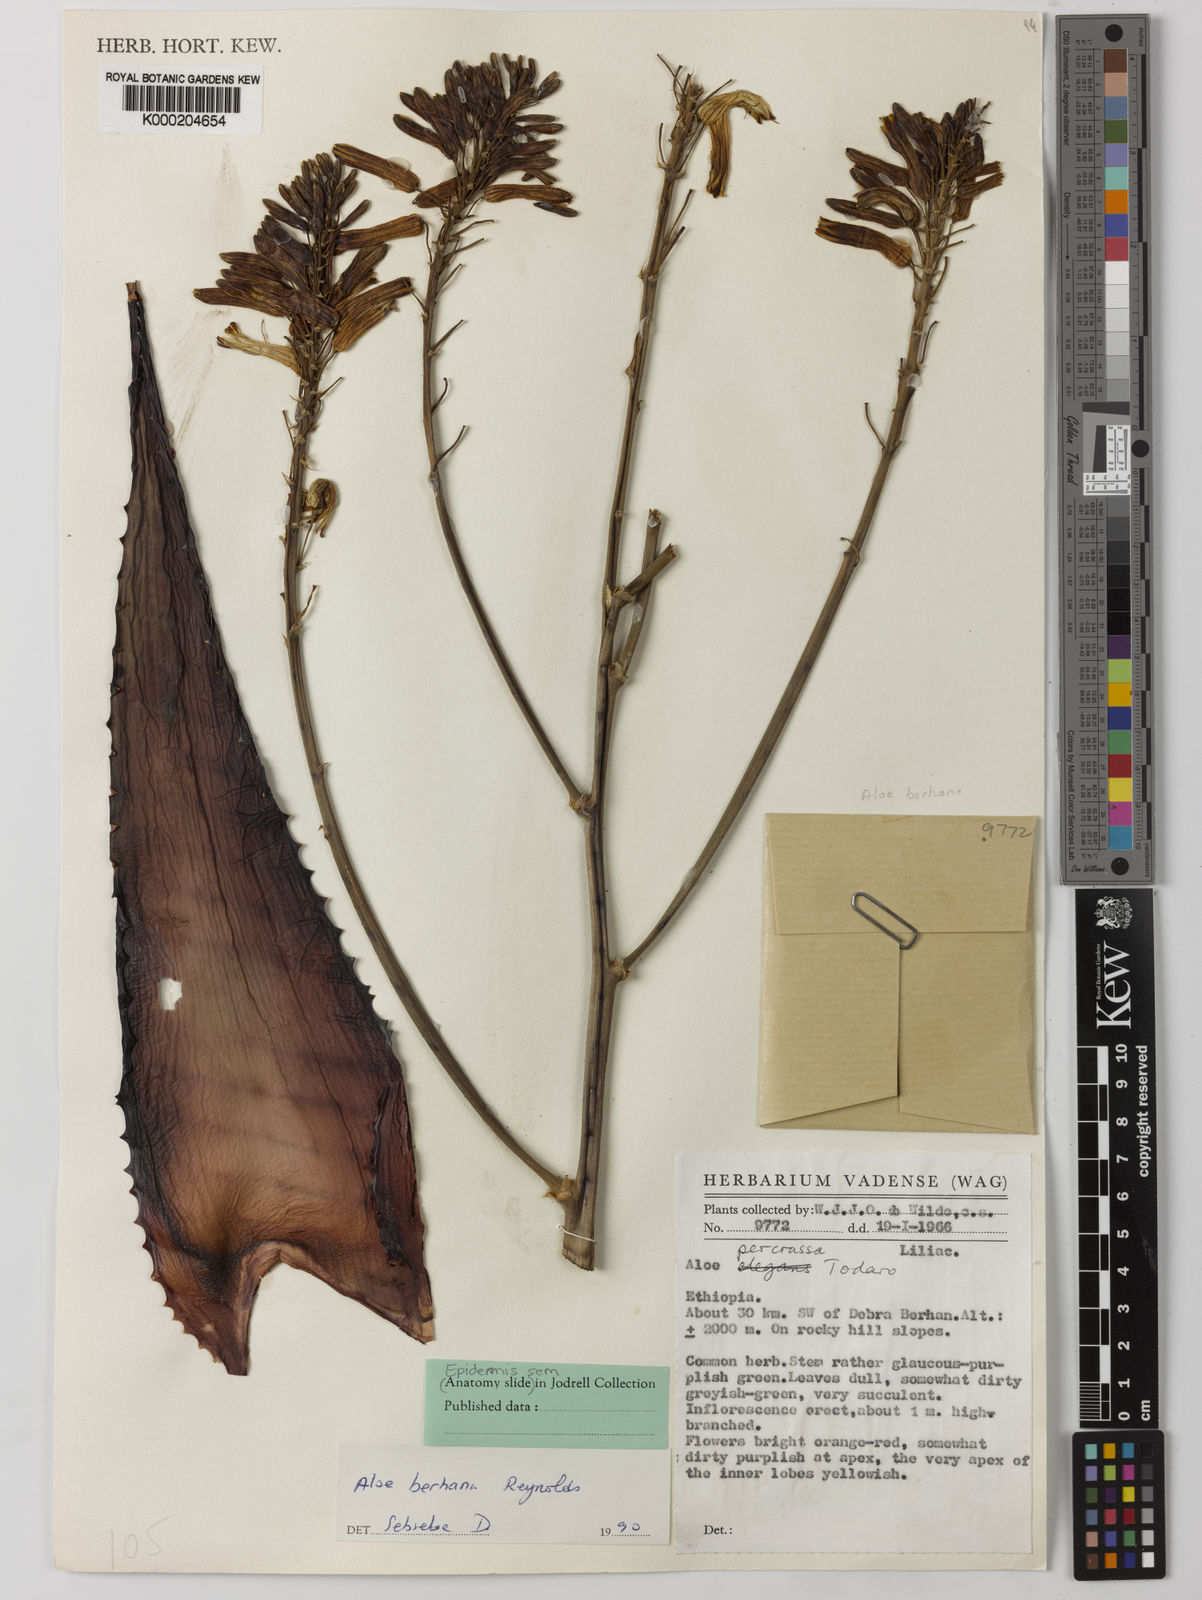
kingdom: Plantae
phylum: Tracheophyta
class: Liliopsida
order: Asparagales
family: Asphodelaceae
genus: Aloe
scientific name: Aloe debrana
